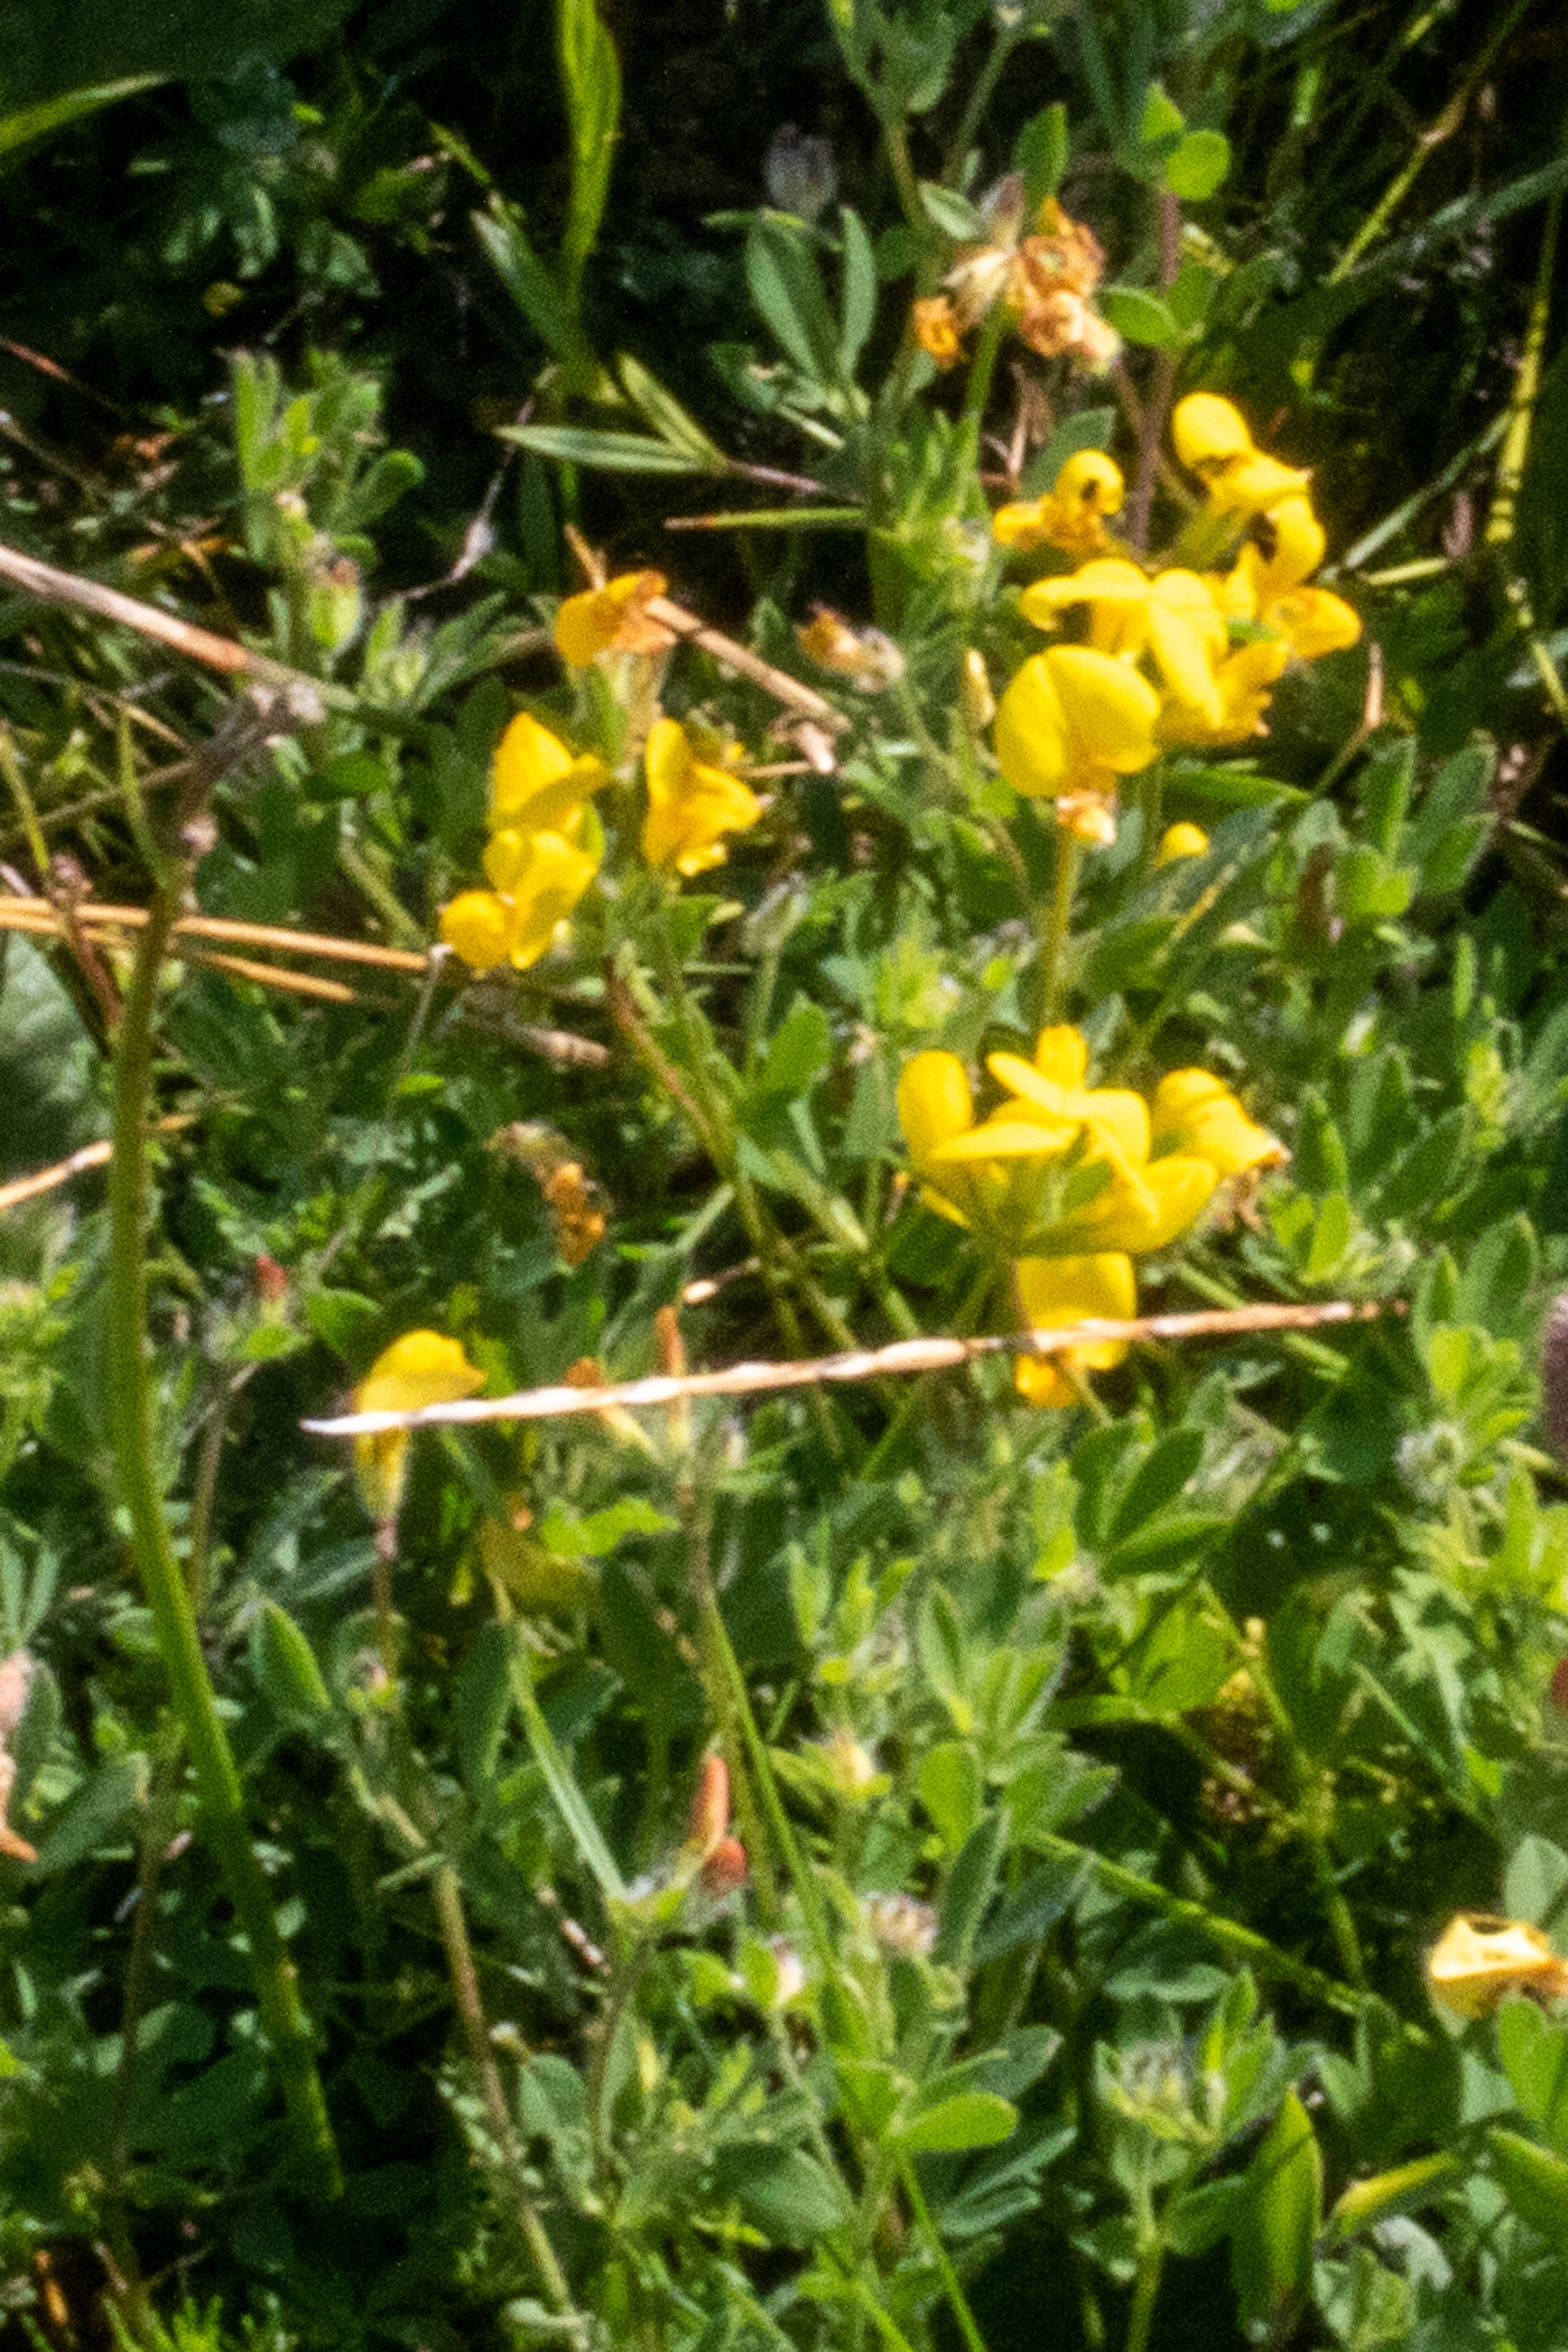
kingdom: Plantae
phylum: Tracheophyta
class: Magnoliopsida
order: Fabales
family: Fabaceae
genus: Lotus
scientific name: Lotus corniculatus
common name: Almindelig kællingetand
